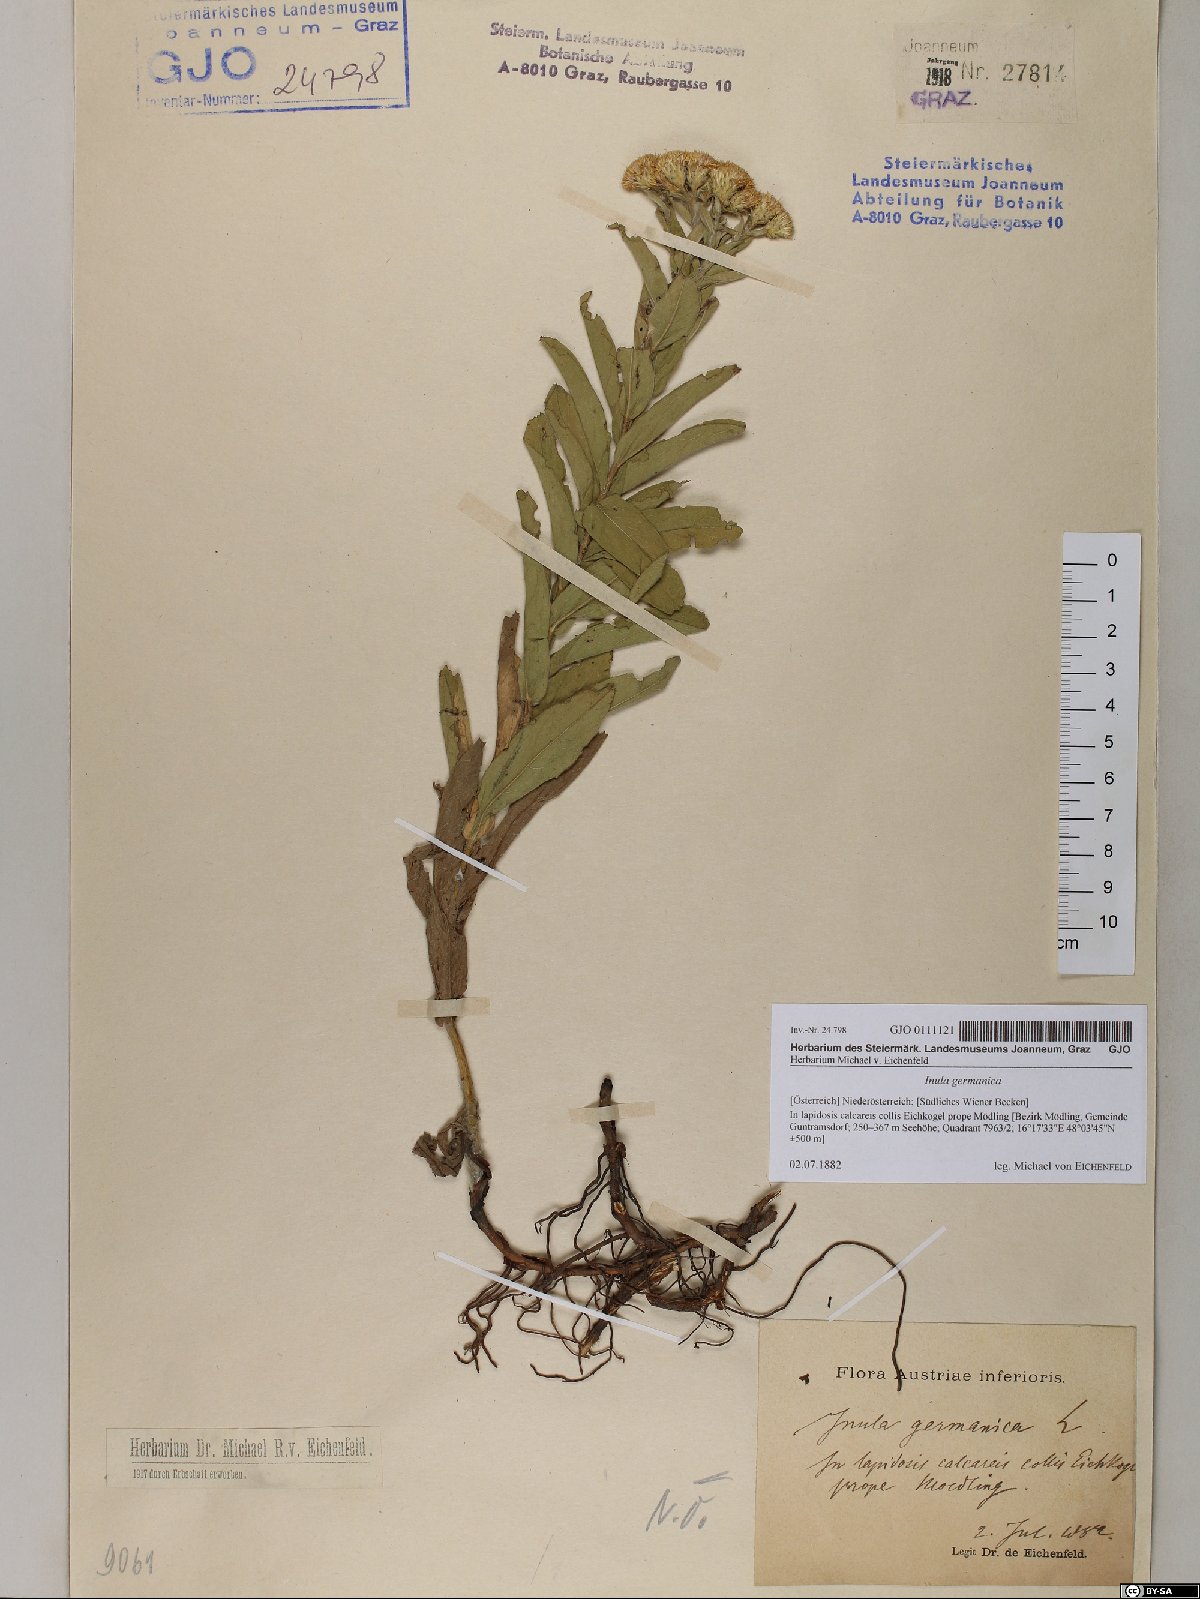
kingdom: Plantae
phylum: Tracheophyta
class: Magnoliopsida
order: Asterales
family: Asteraceae
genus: Pentanema
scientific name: Pentanema germanicum
